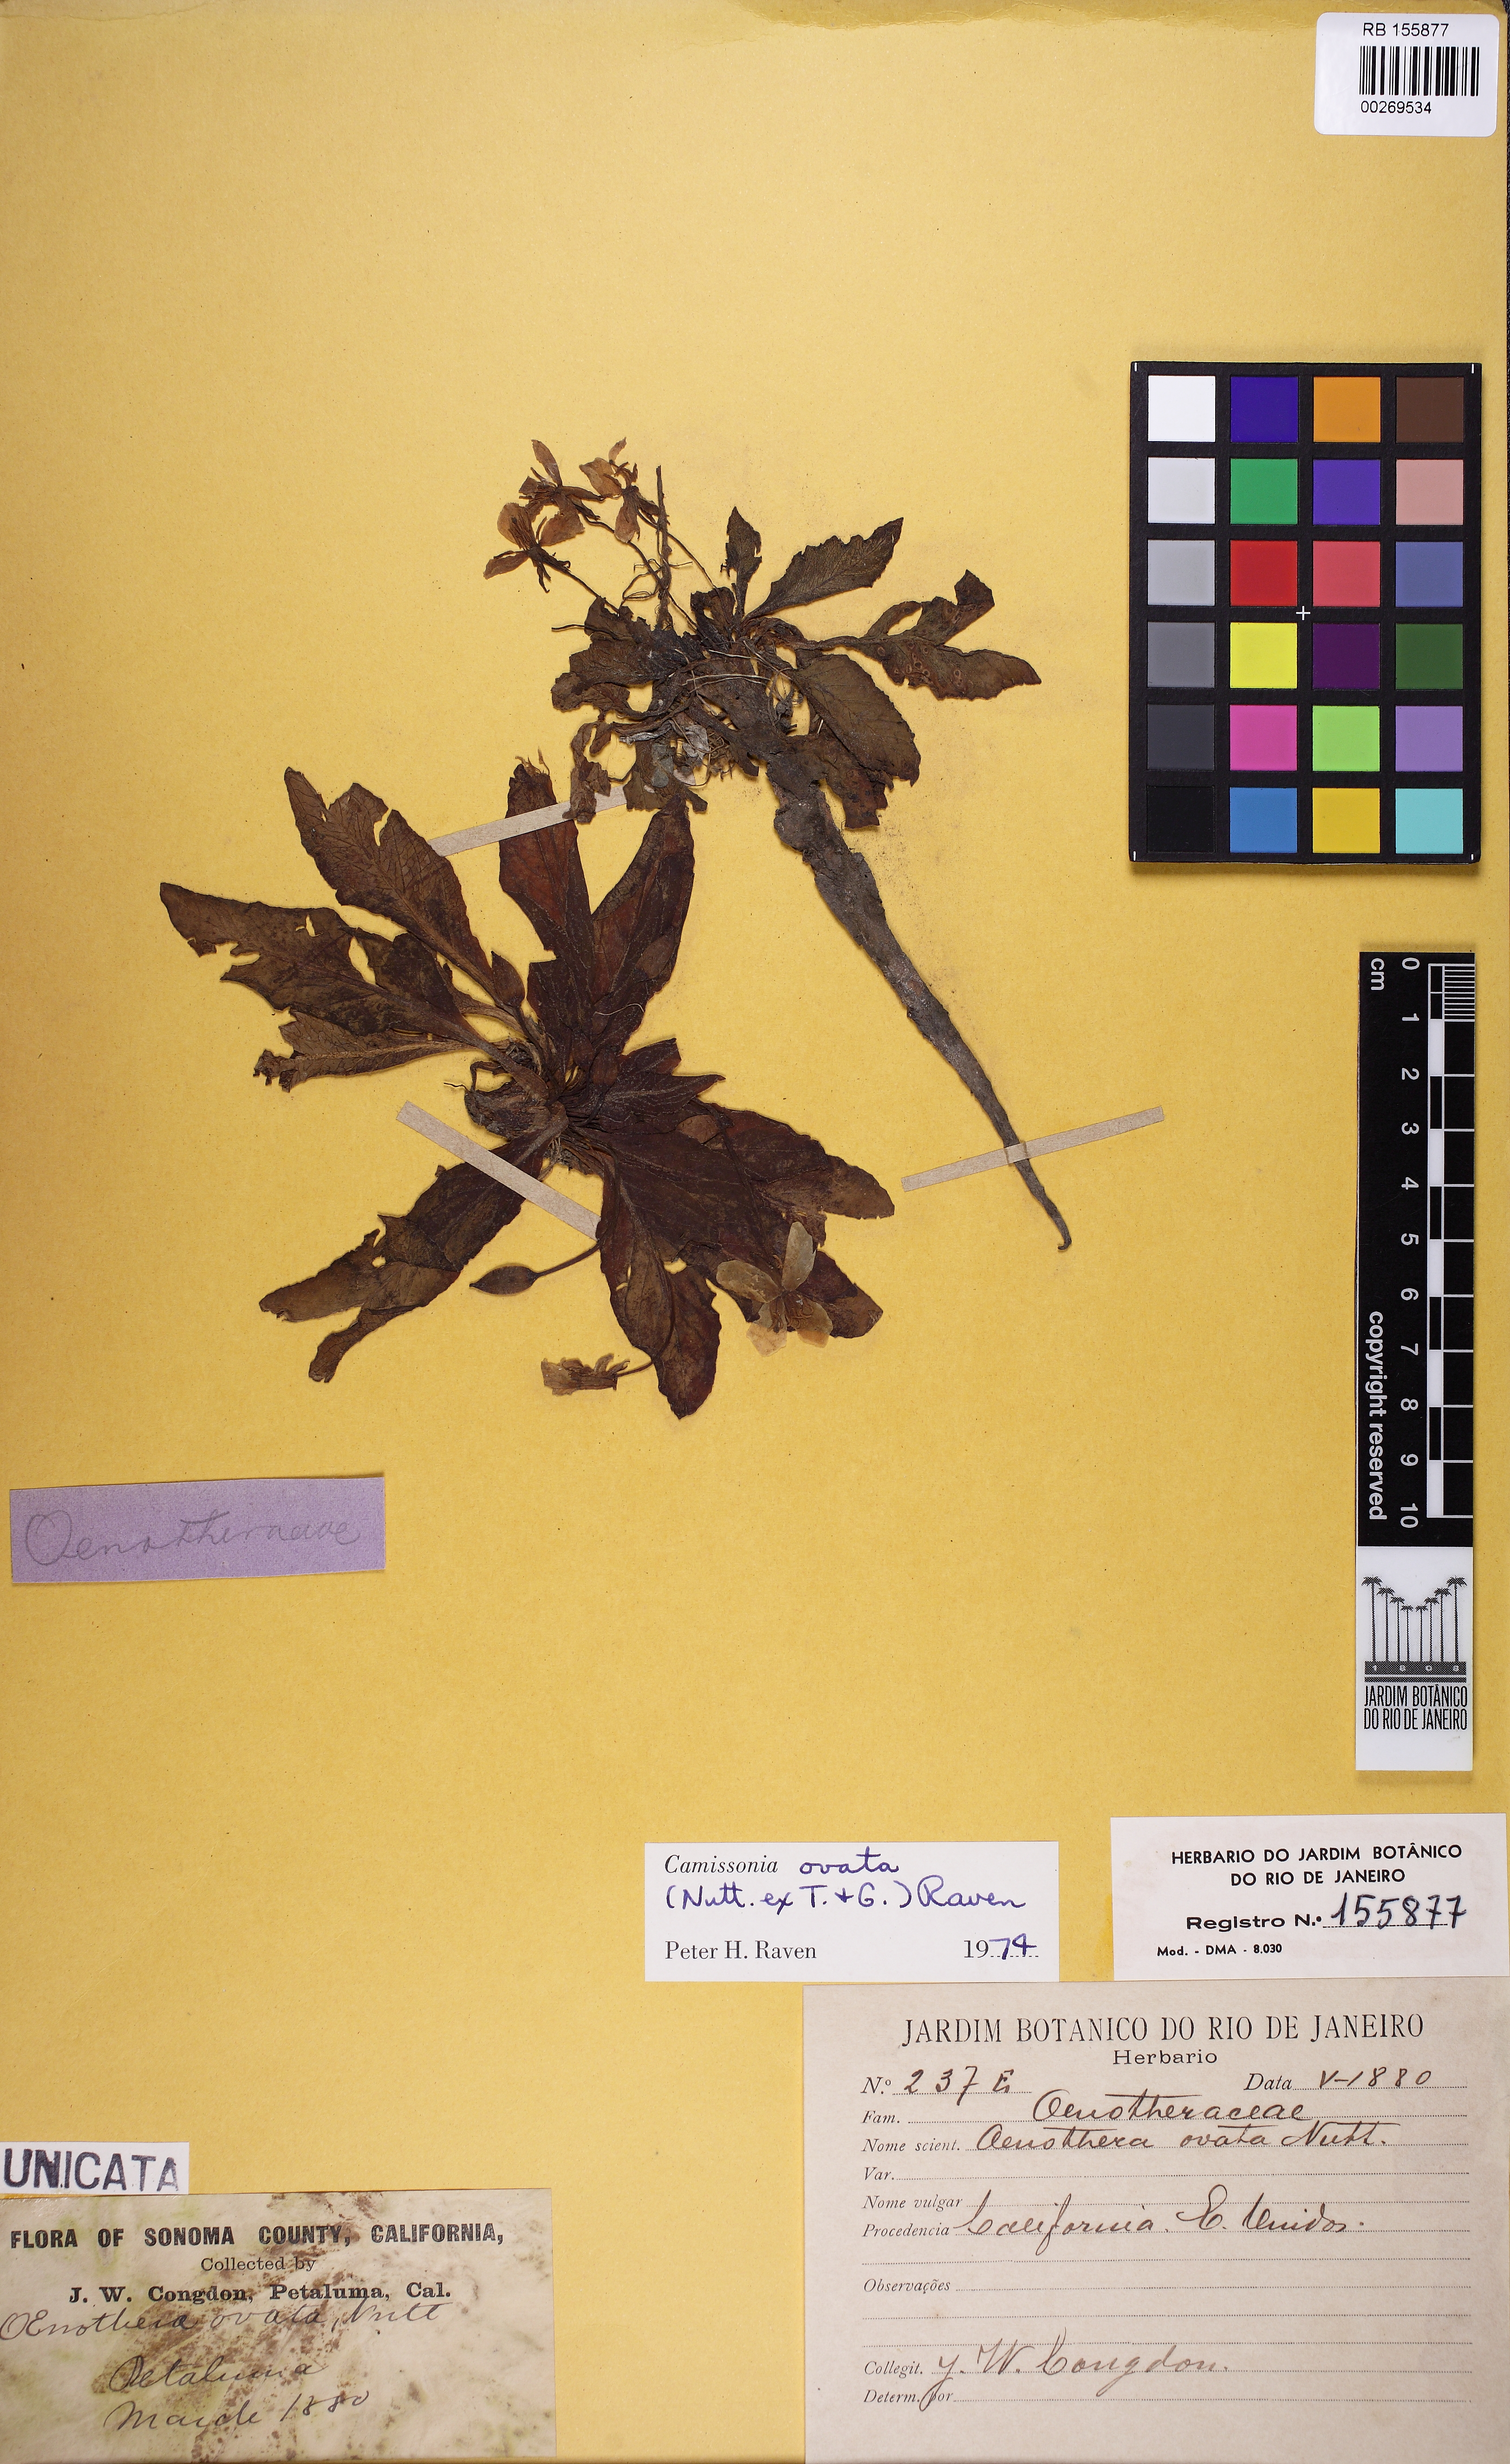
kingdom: Plantae
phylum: Tracheophyta
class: Magnoliopsida
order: Myrtales
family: Onagraceae
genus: Taraxia
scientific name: Taraxia ovata
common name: Goldeneggs
